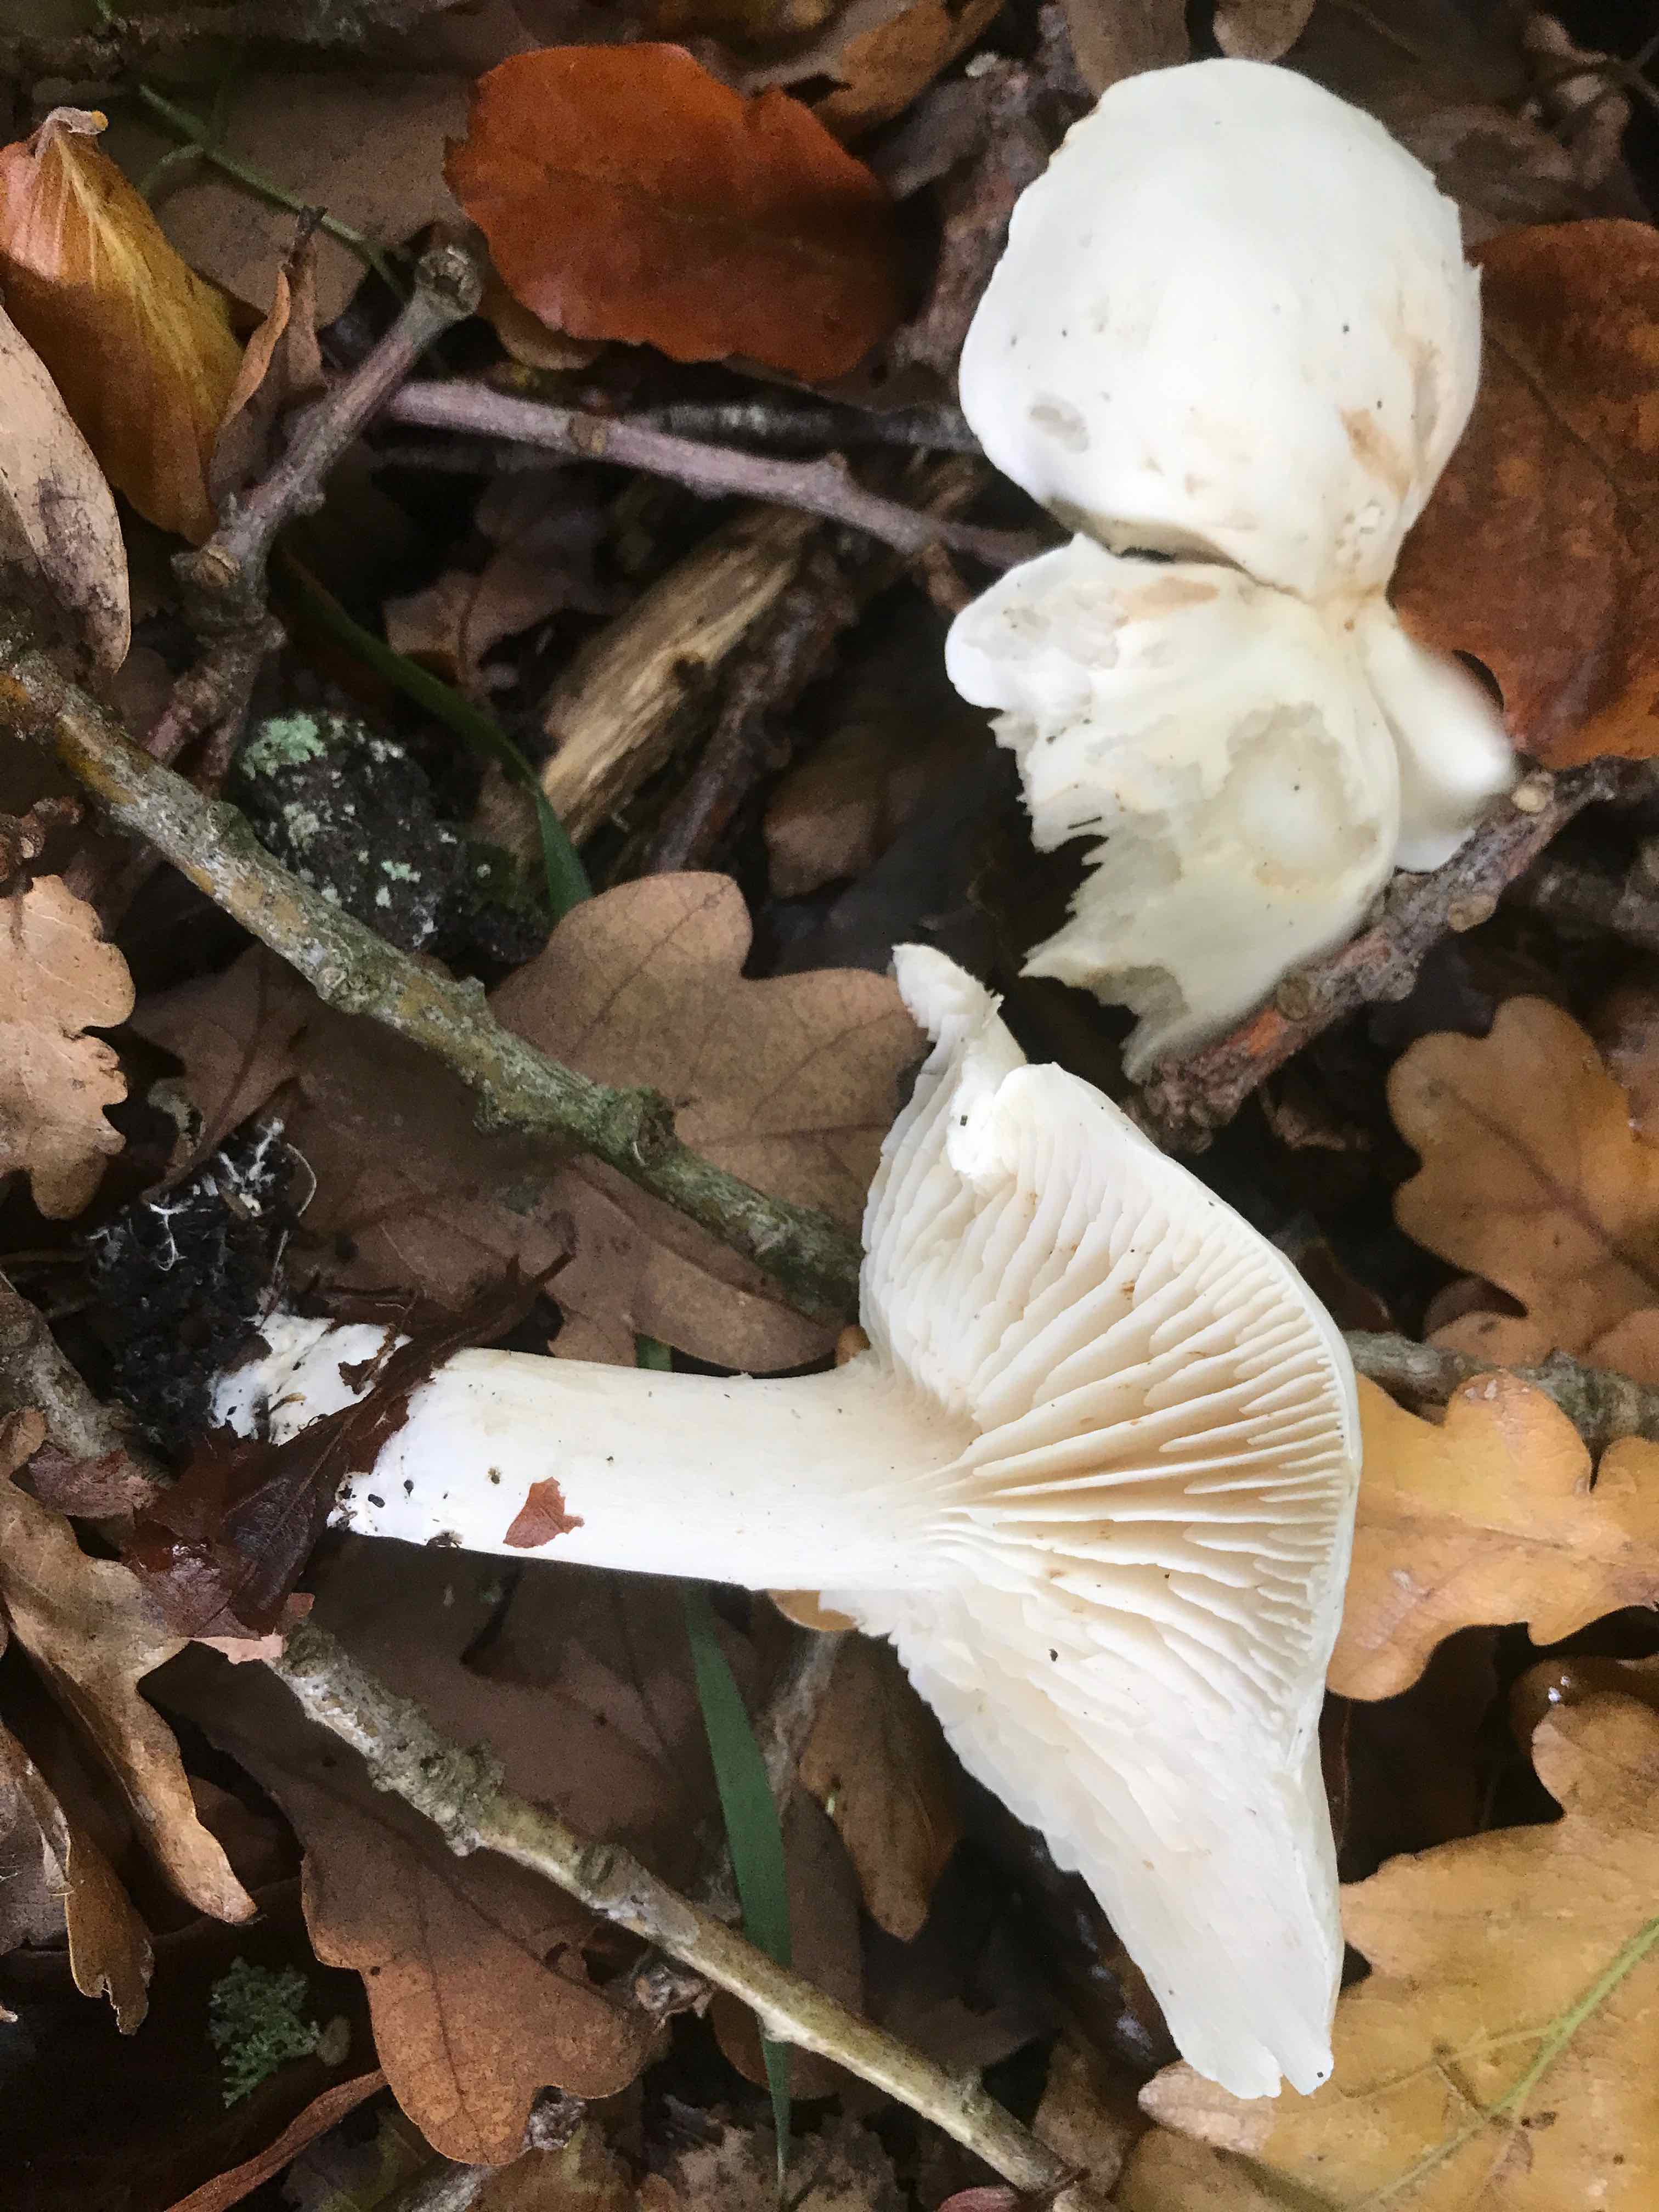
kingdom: Fungi
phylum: Basidiomycota
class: Agaricomycetes
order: Agaricales
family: Tricholomataceae
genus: Tricholoma
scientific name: Tricholoma album
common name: honning-ridderhat
